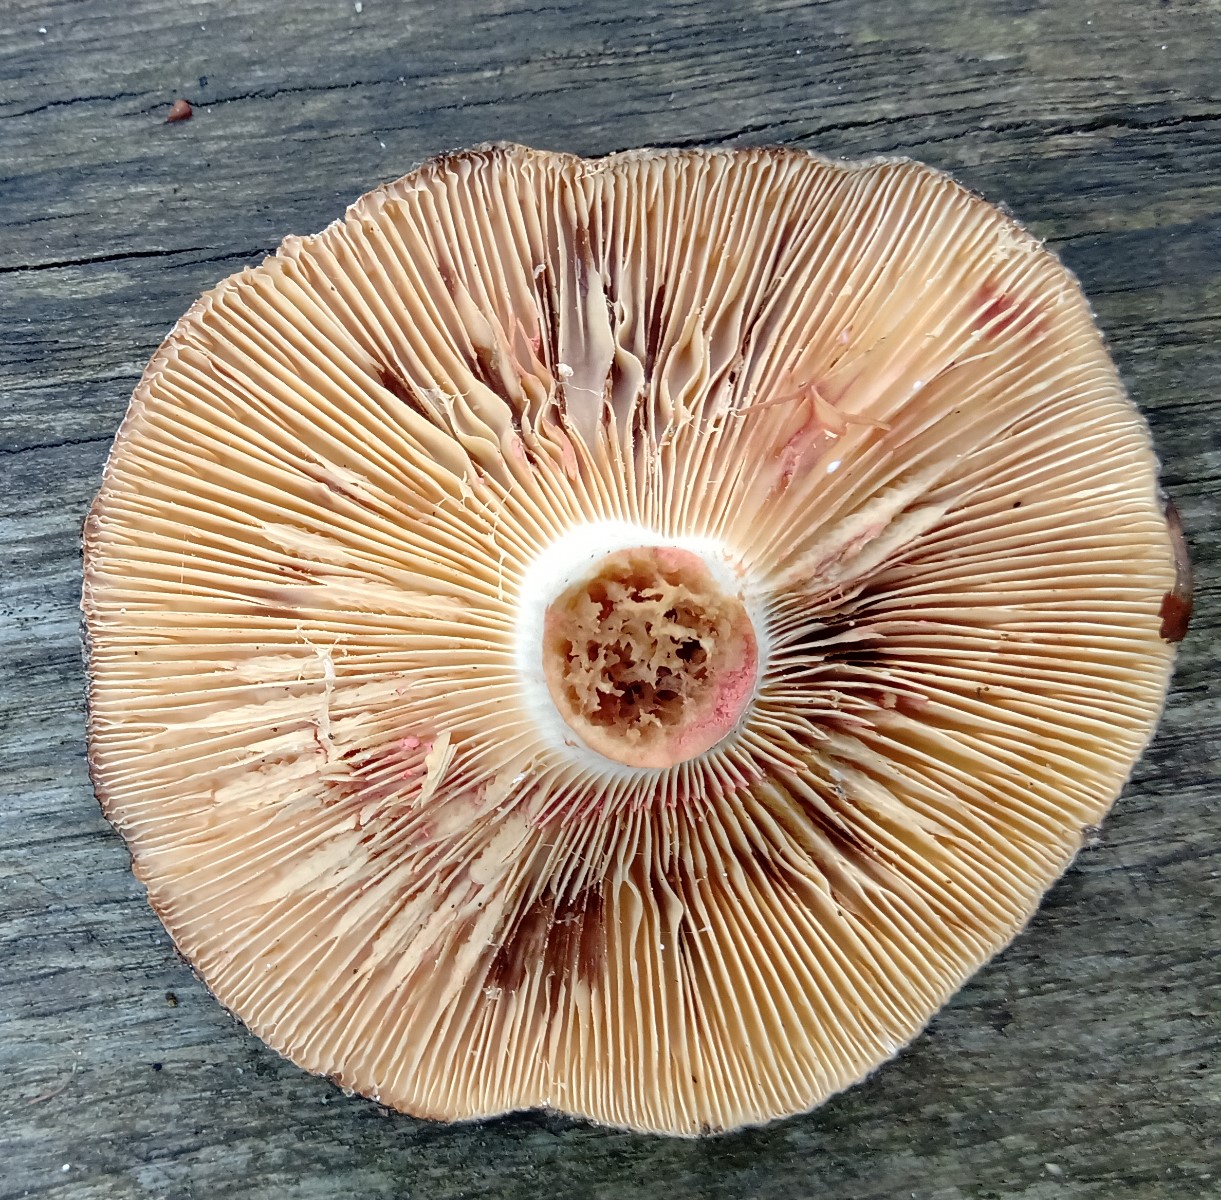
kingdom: Fungi
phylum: Basidiomycota
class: Agaricomycetes
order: Russulales
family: Russulaceae
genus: Lactarius
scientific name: Lactarius acris
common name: rosamælket mælkehat
